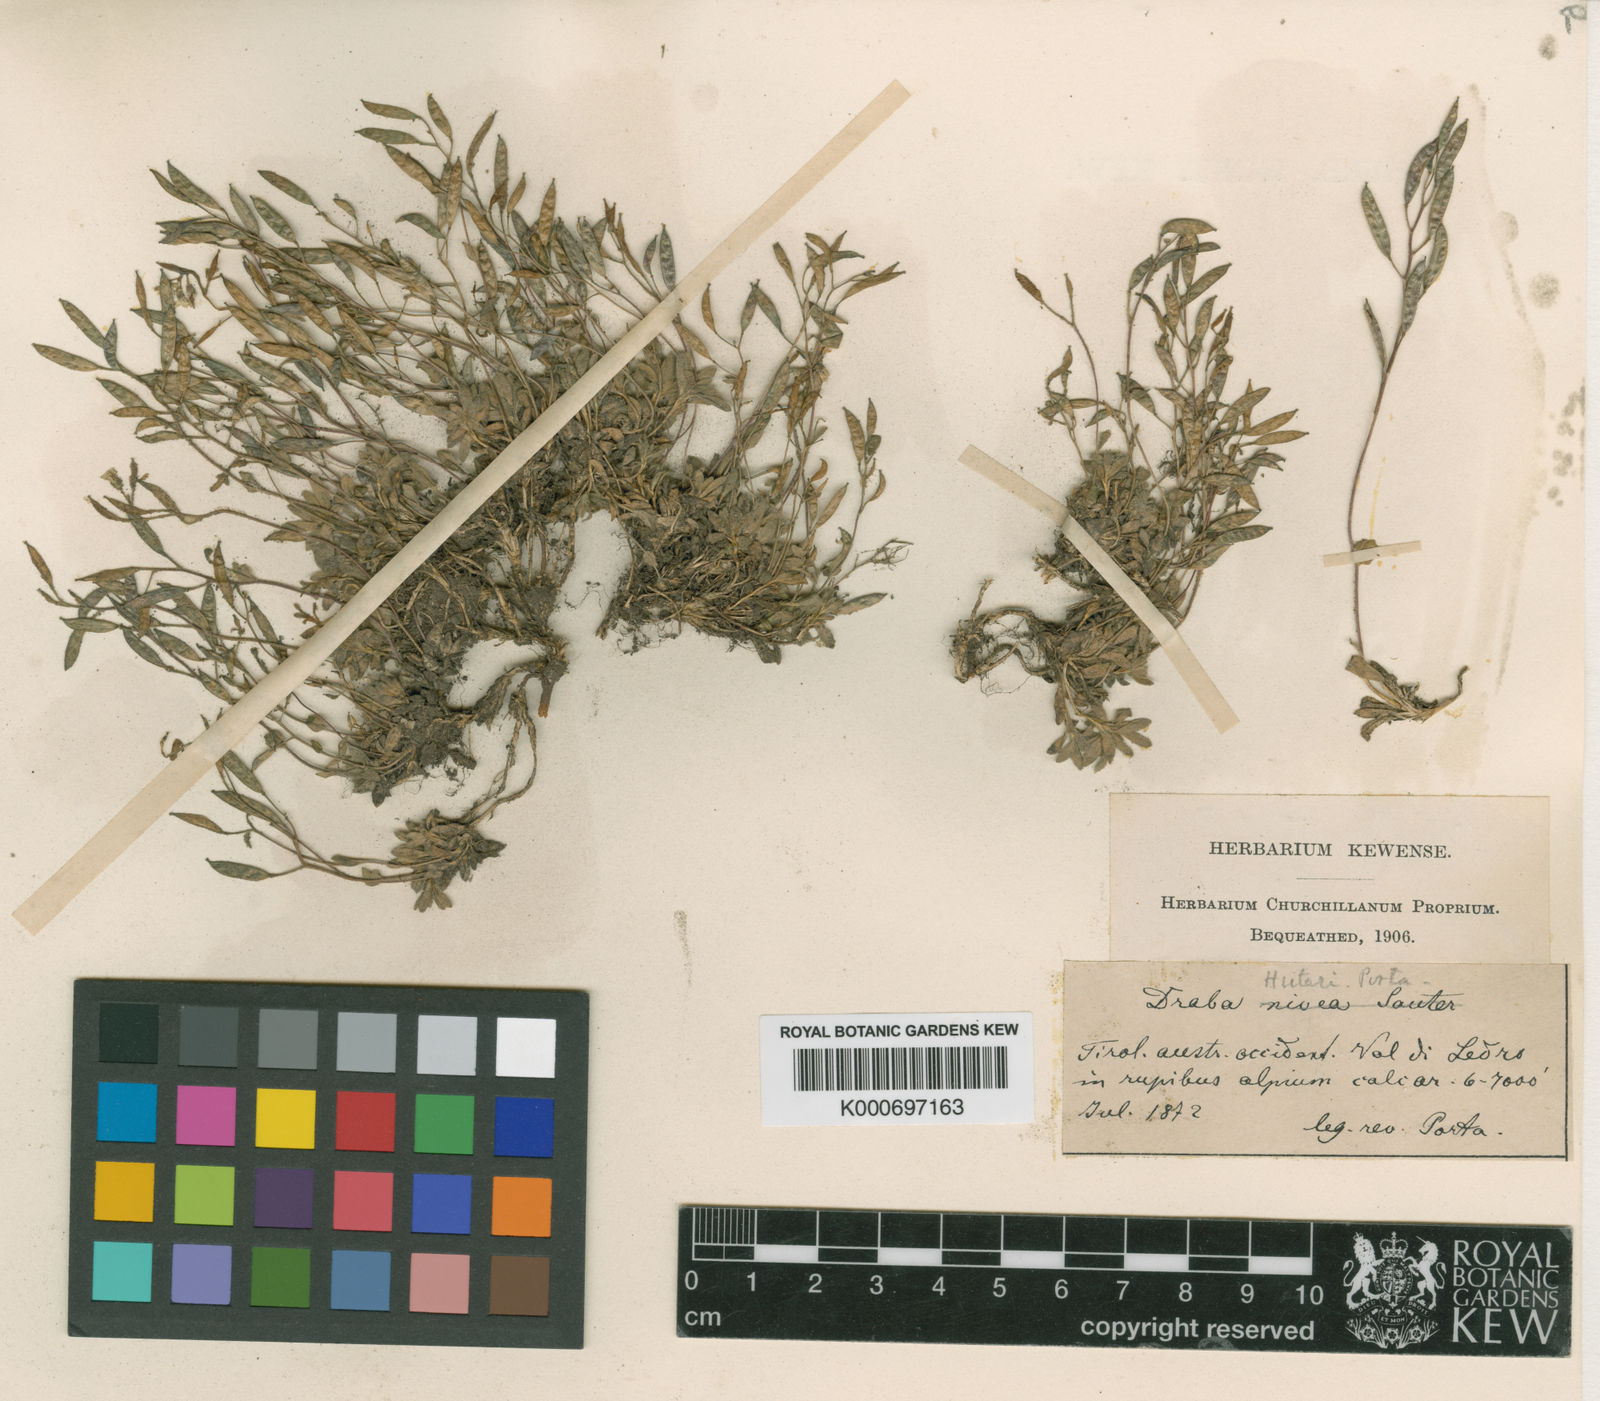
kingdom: Plantae
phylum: Tracheophyta
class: Magnoliopsida
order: Brassicales
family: Brassicaceae
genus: Draba
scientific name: Draba dubia
